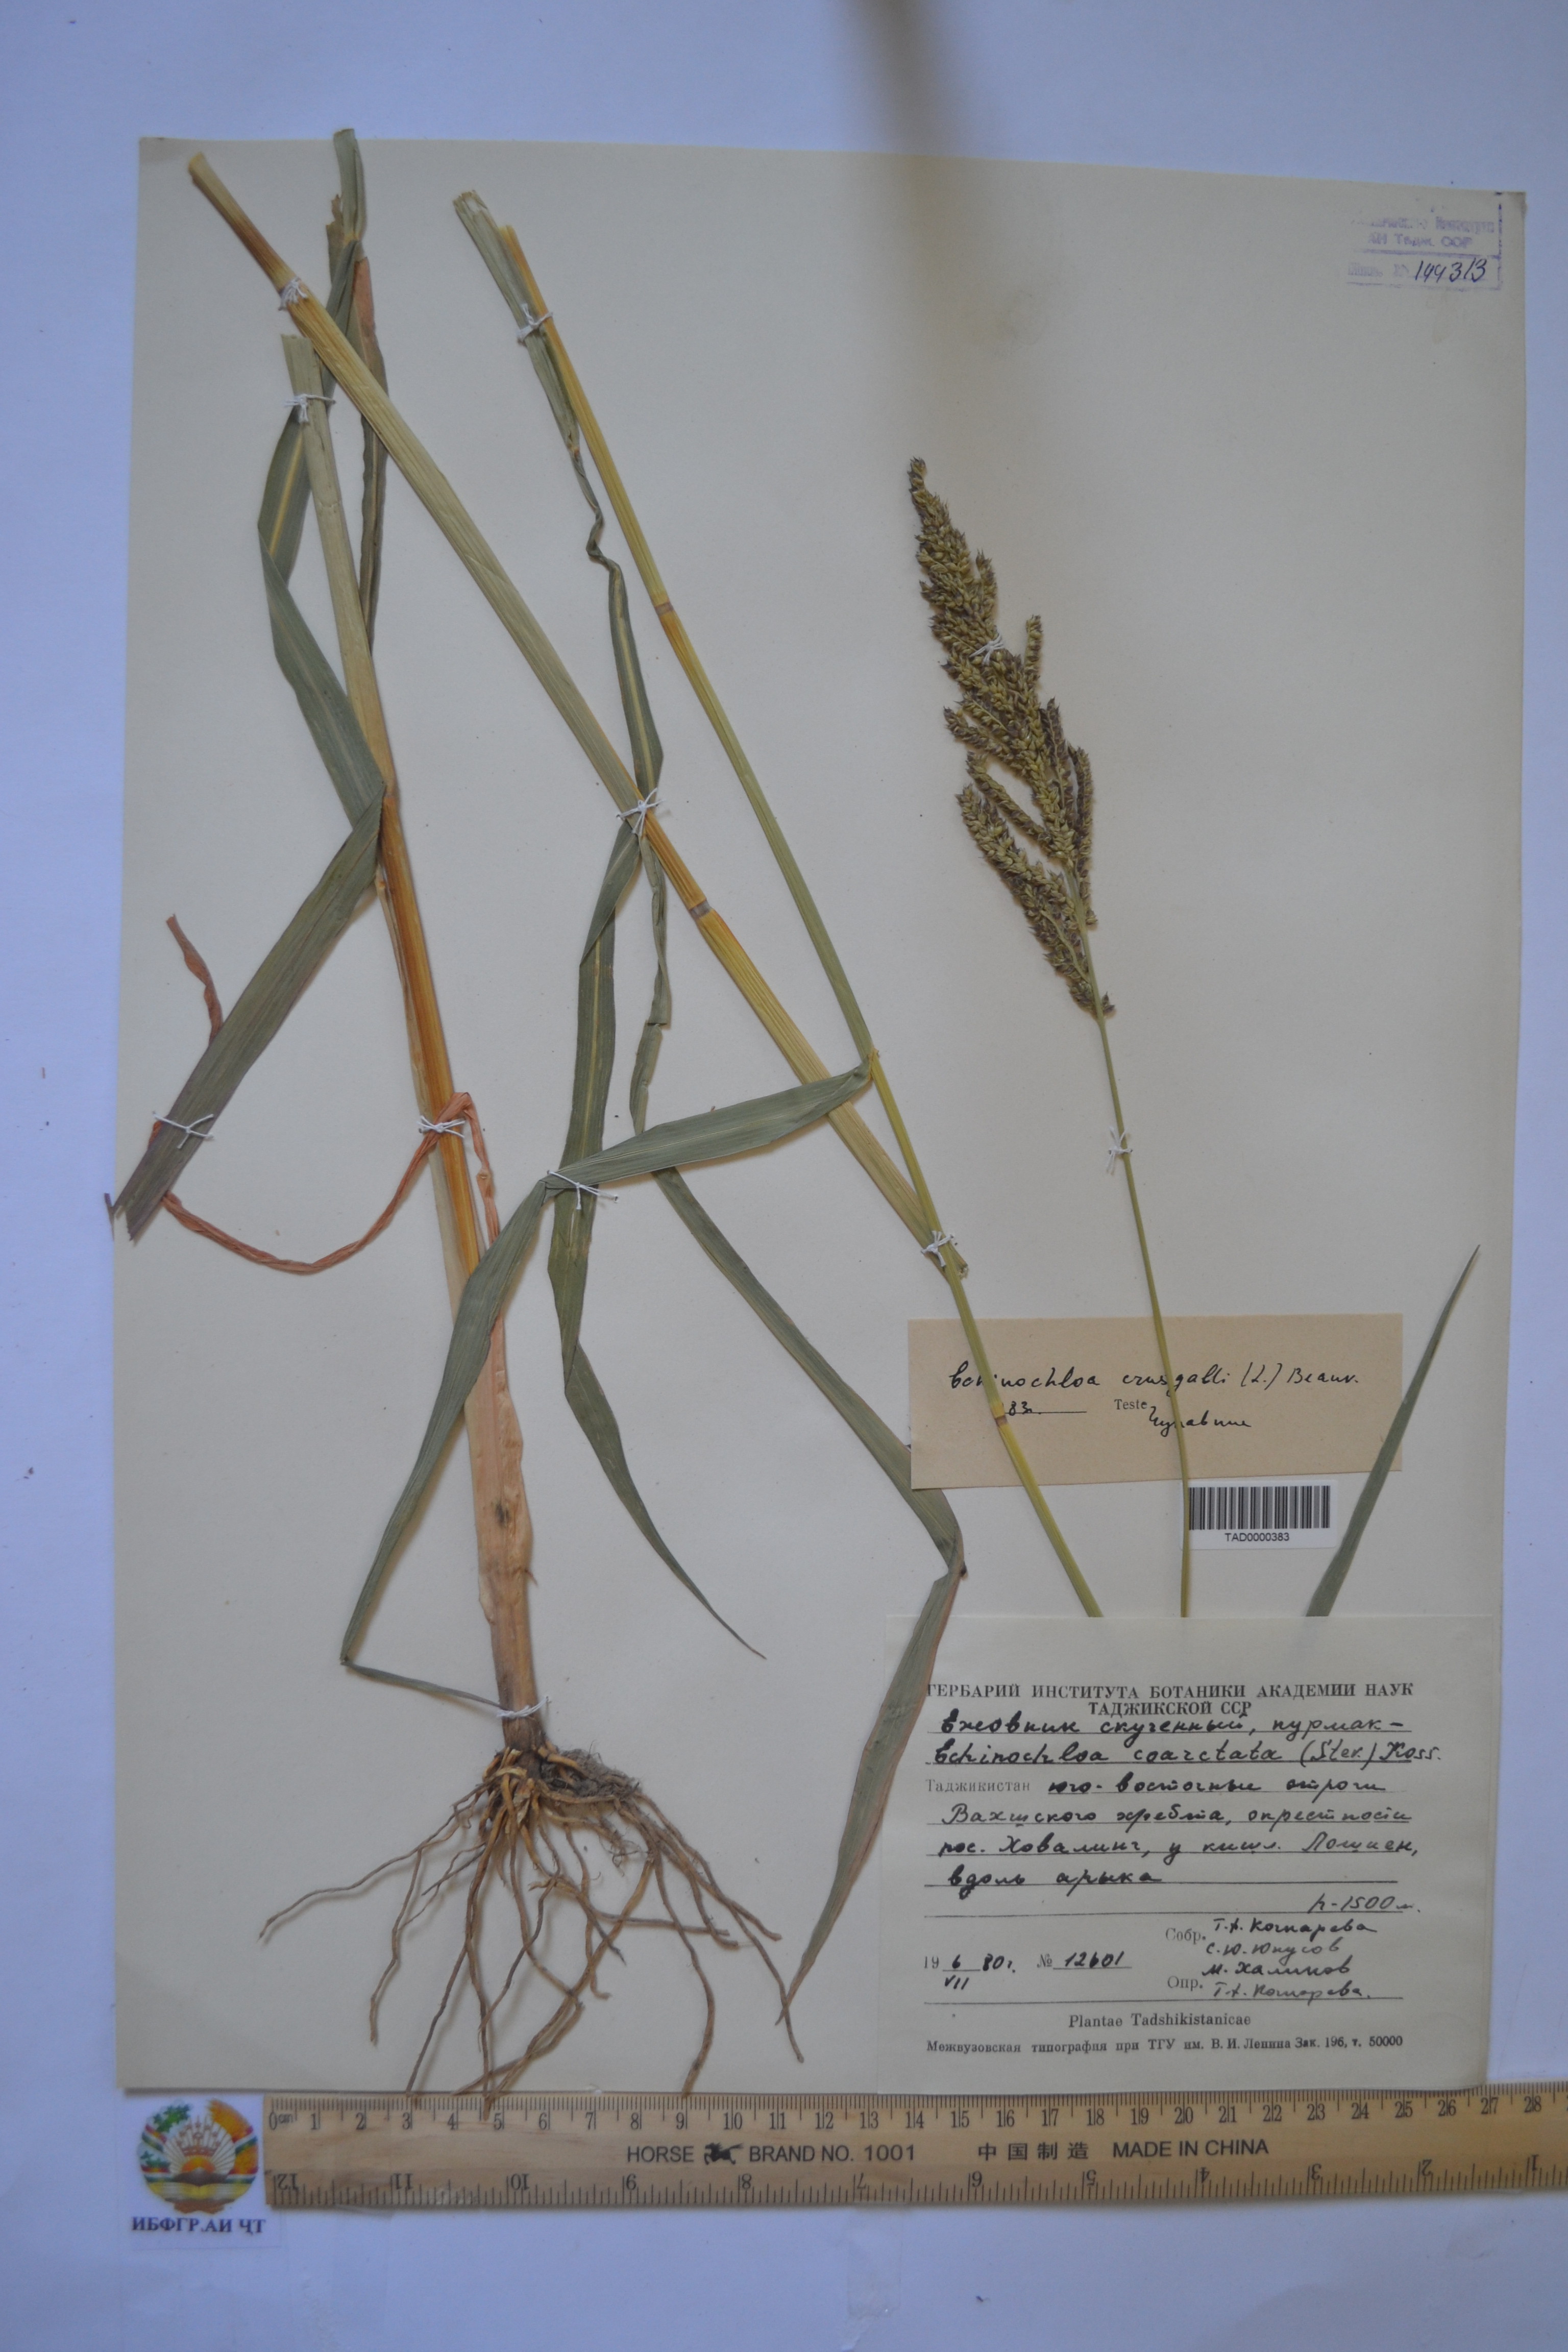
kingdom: Plantae
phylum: Tracheophyta
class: Liliopsida
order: Poales
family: Poaceae
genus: Echinochloa
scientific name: Echinochloa crus-galli
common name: Cockspur
